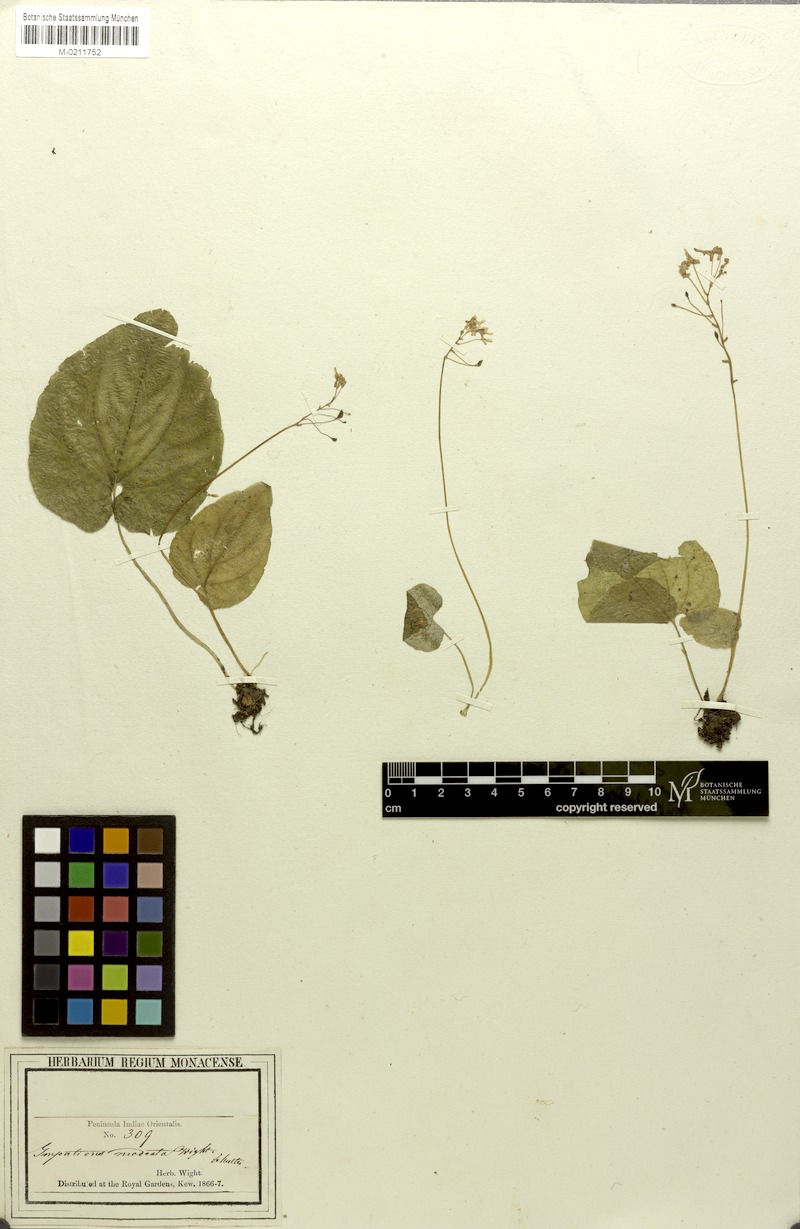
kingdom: Plantae
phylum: Tracheophyta
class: Magnoliopsida
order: Ericales
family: Balsaminaceae
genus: Impatiens
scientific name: Impatiens modesta
